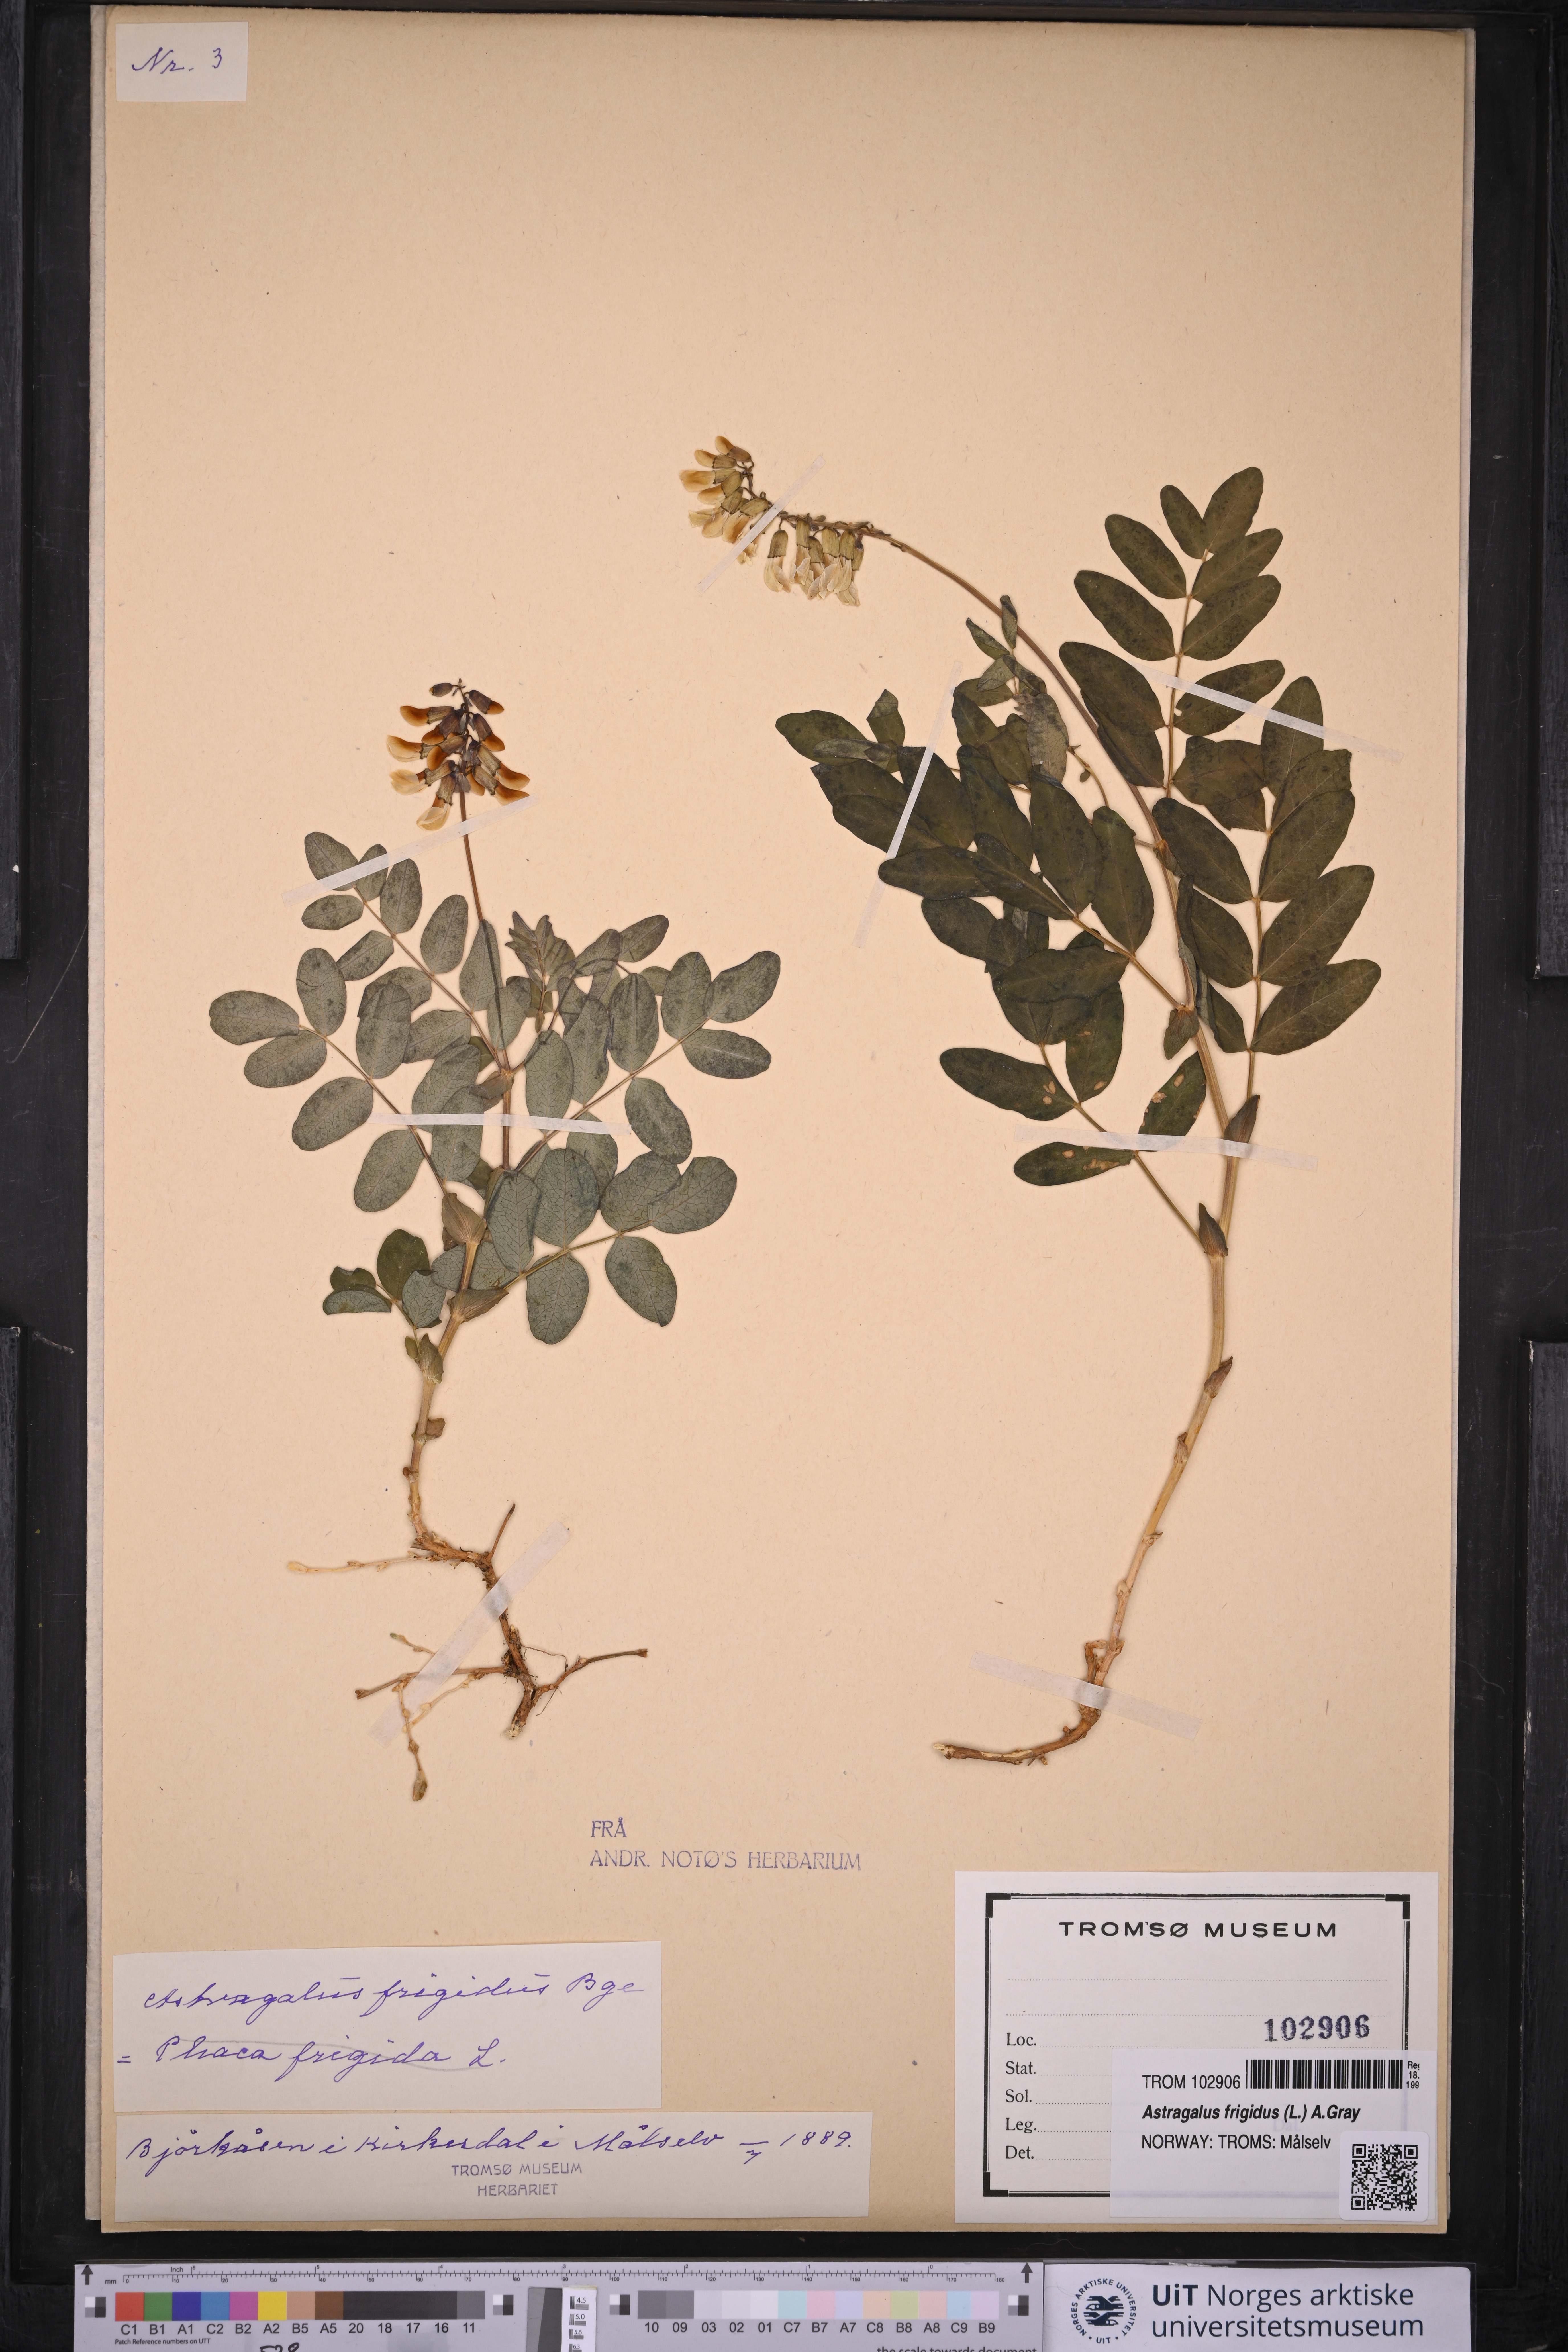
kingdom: Plantae
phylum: Tracheophyta
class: Magnoliopsida
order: Fabales
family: Fabaceae
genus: Astragalus
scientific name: Astragalus frigidus
